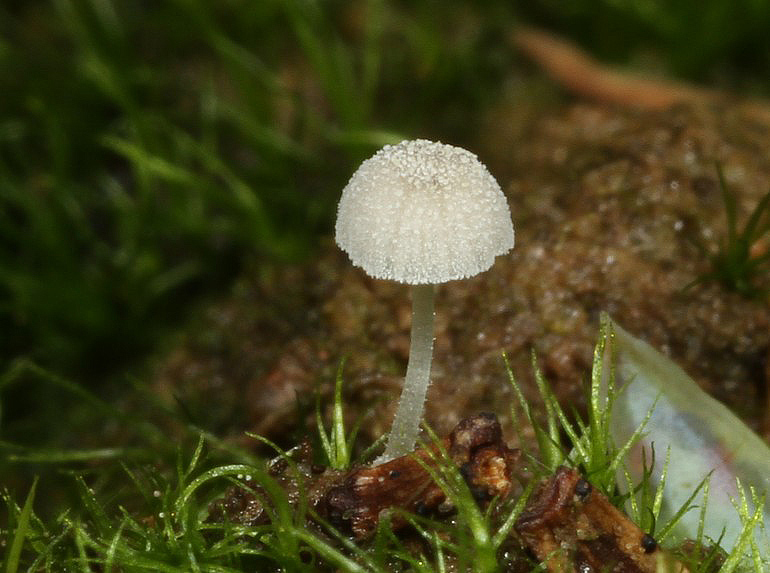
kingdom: Fungi
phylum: Basidiomycota
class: Agaricomycetes
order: Agaricales
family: Mycenaceae
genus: Mycena
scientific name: Mycena tenerrima
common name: pudret huesvamp
